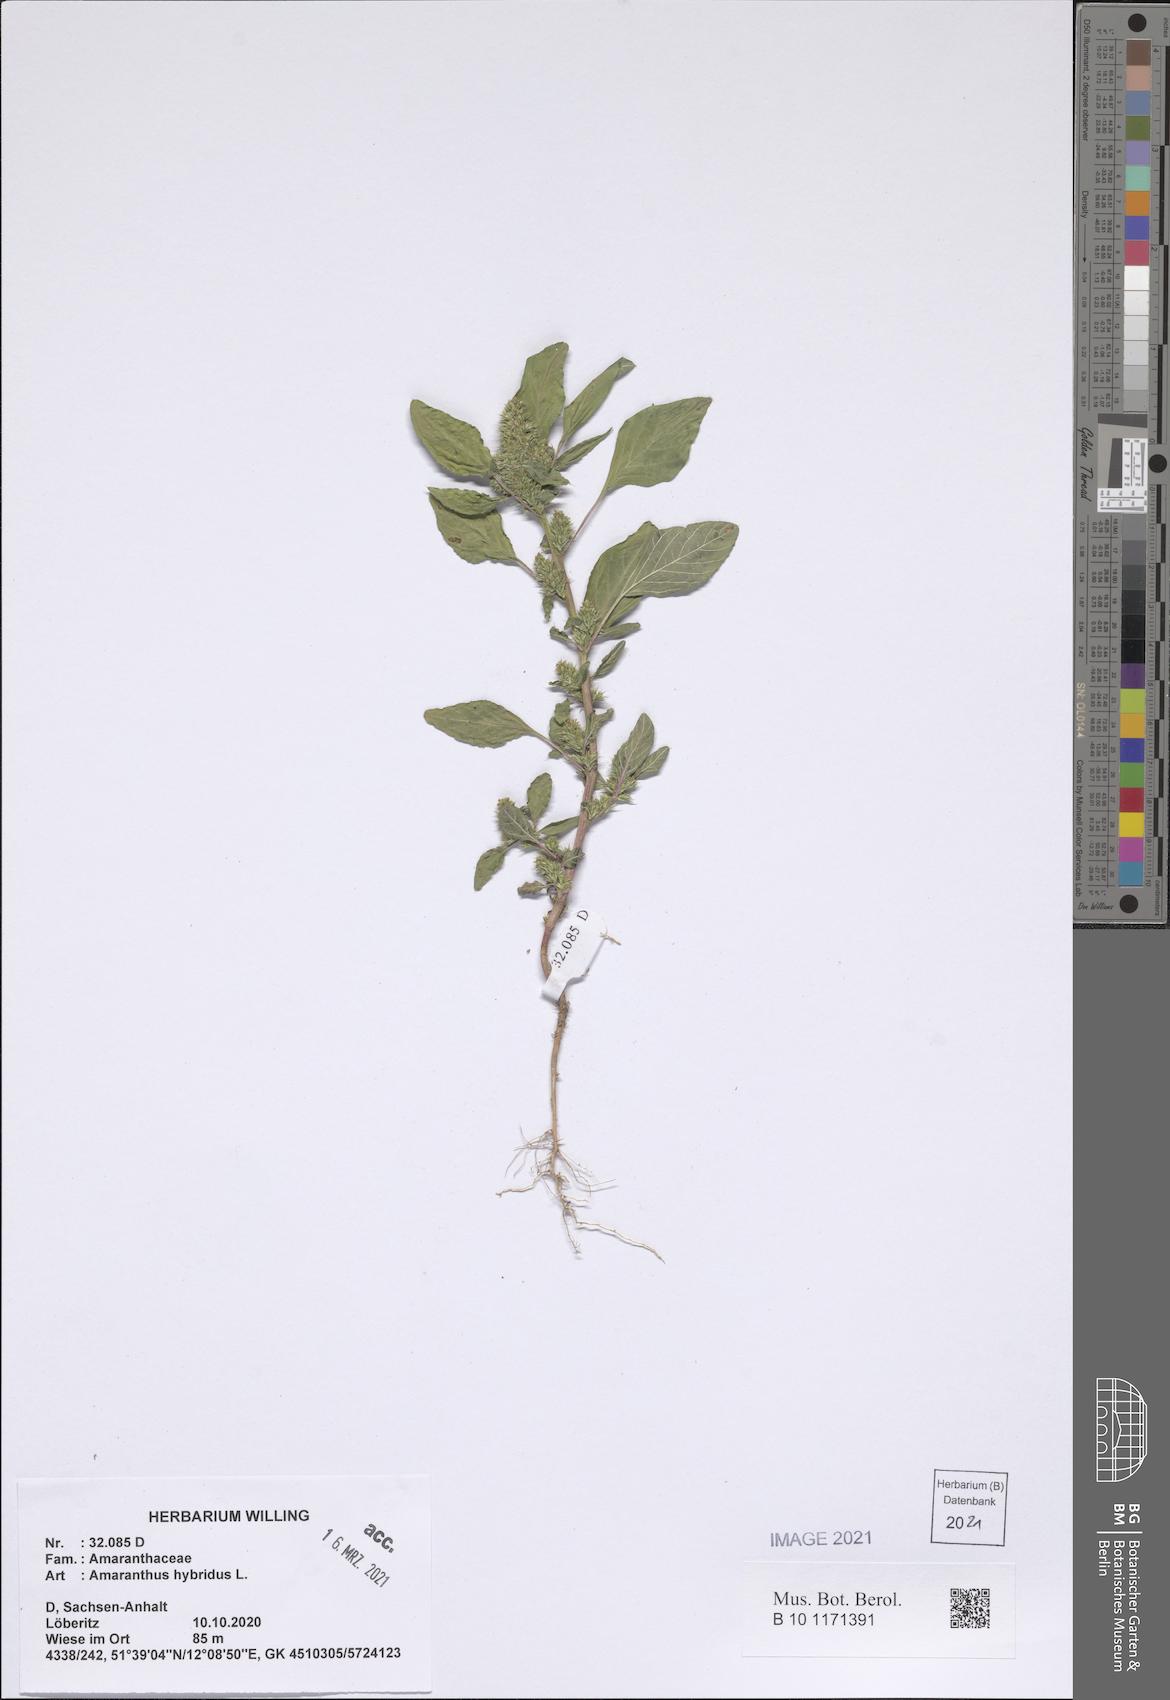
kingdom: Plantae
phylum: Tracheophyta
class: Magnoliopsida
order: Caryophyllales
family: Amaranthaceae
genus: Amaranthus
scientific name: Amaranthus hybridus
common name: Green amaranth
